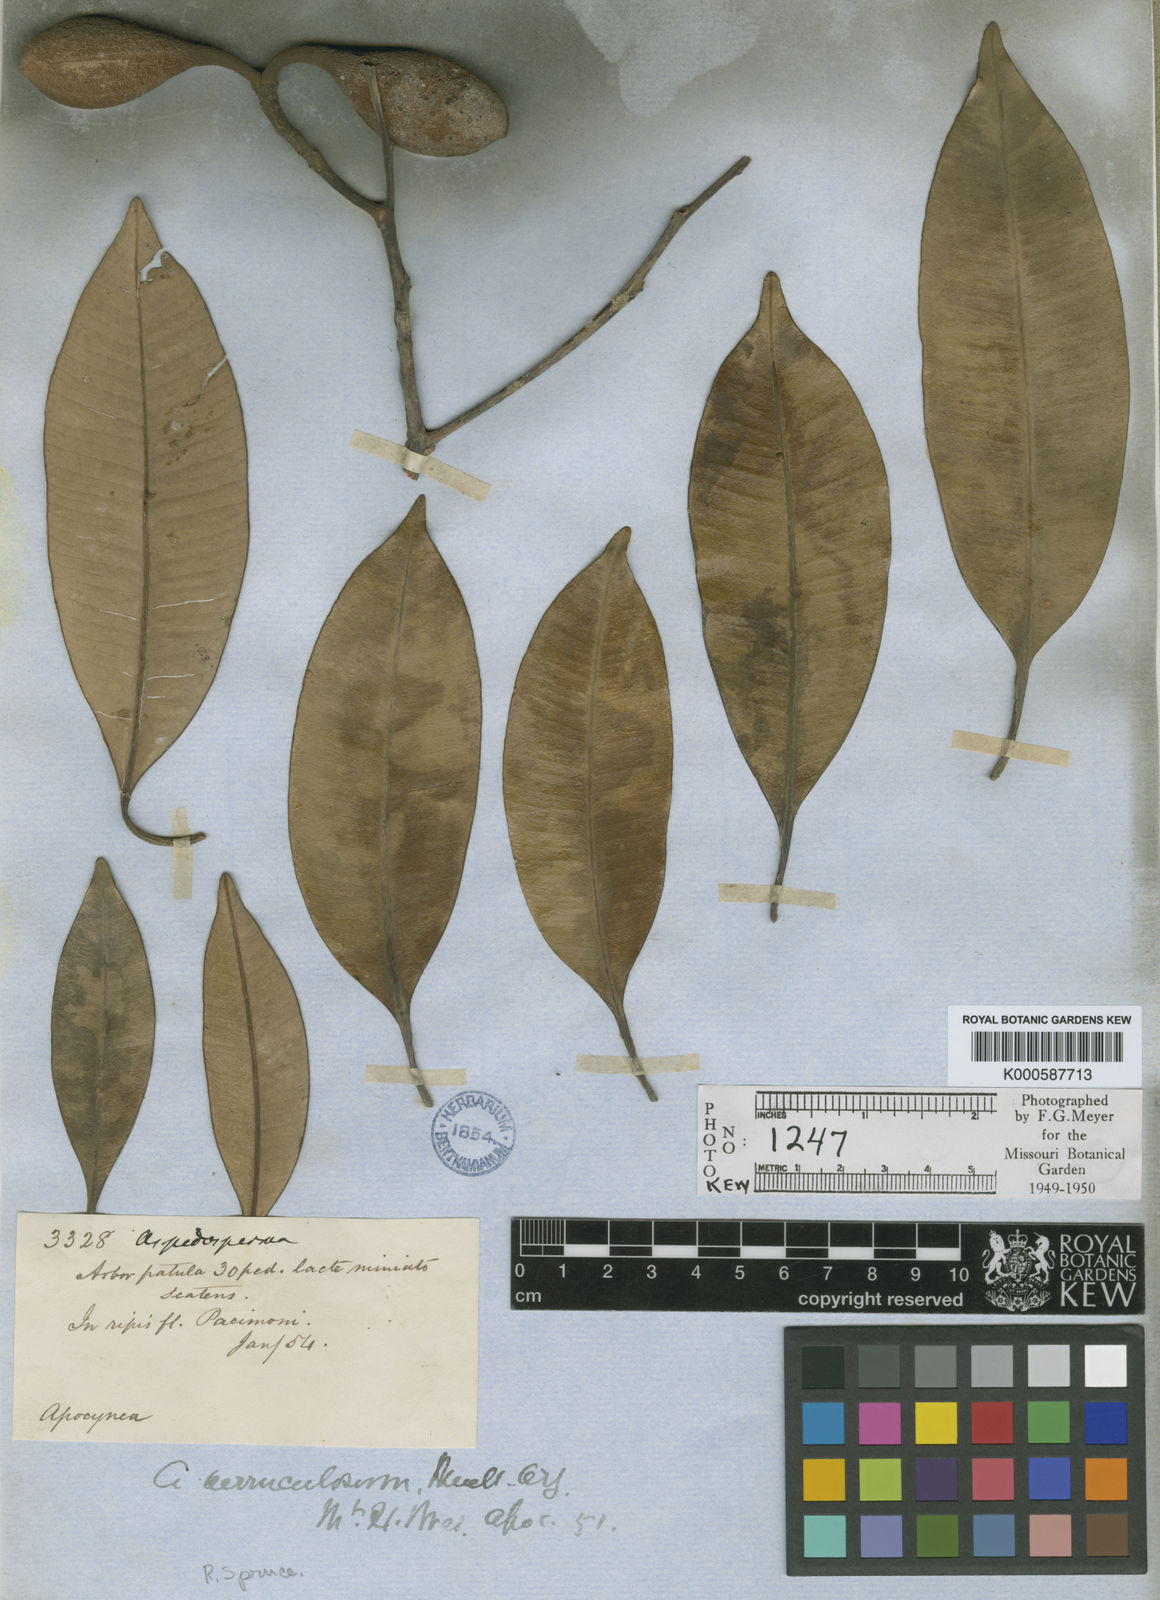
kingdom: Plantae
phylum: Tracheophyta
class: Magnoliopsida
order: Gentianales
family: Apocynaceae
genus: Aspidosperma
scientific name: Aspidosperma
